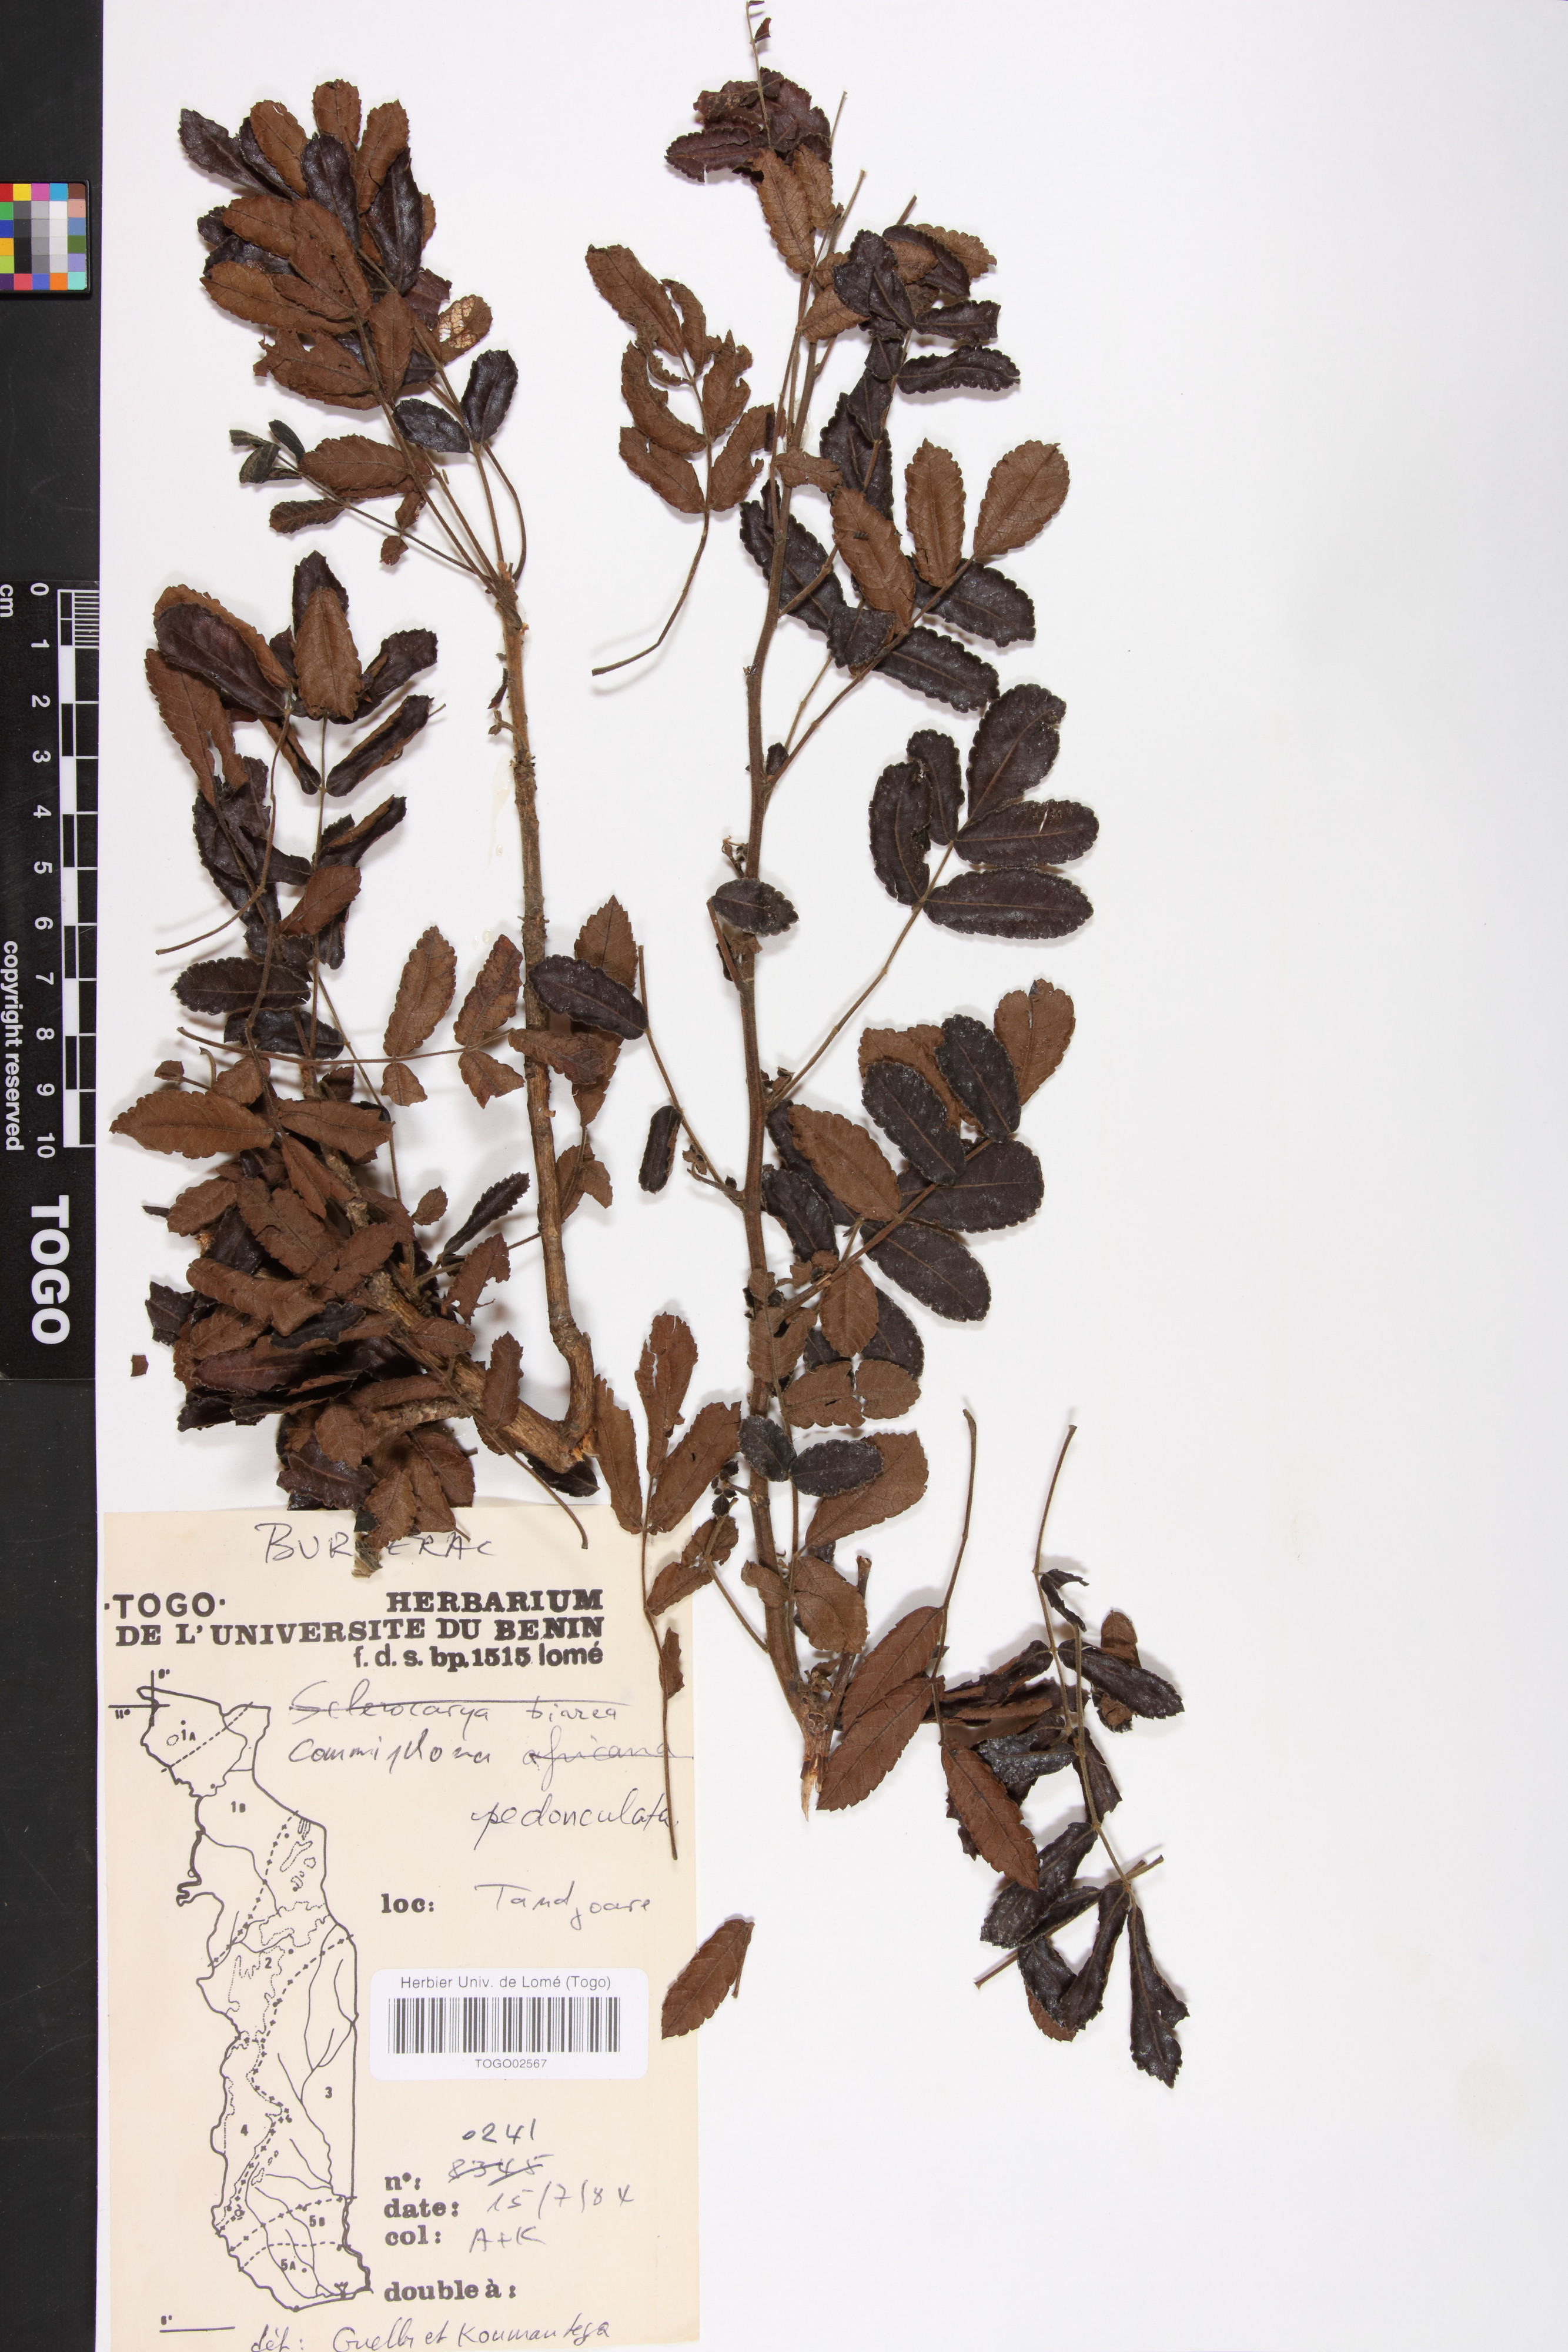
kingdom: Plantae
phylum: Tracheophyta
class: Magnoliopsida
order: Sapindales
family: Burseraceae
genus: Commiphora
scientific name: Commiphora pedunculata
